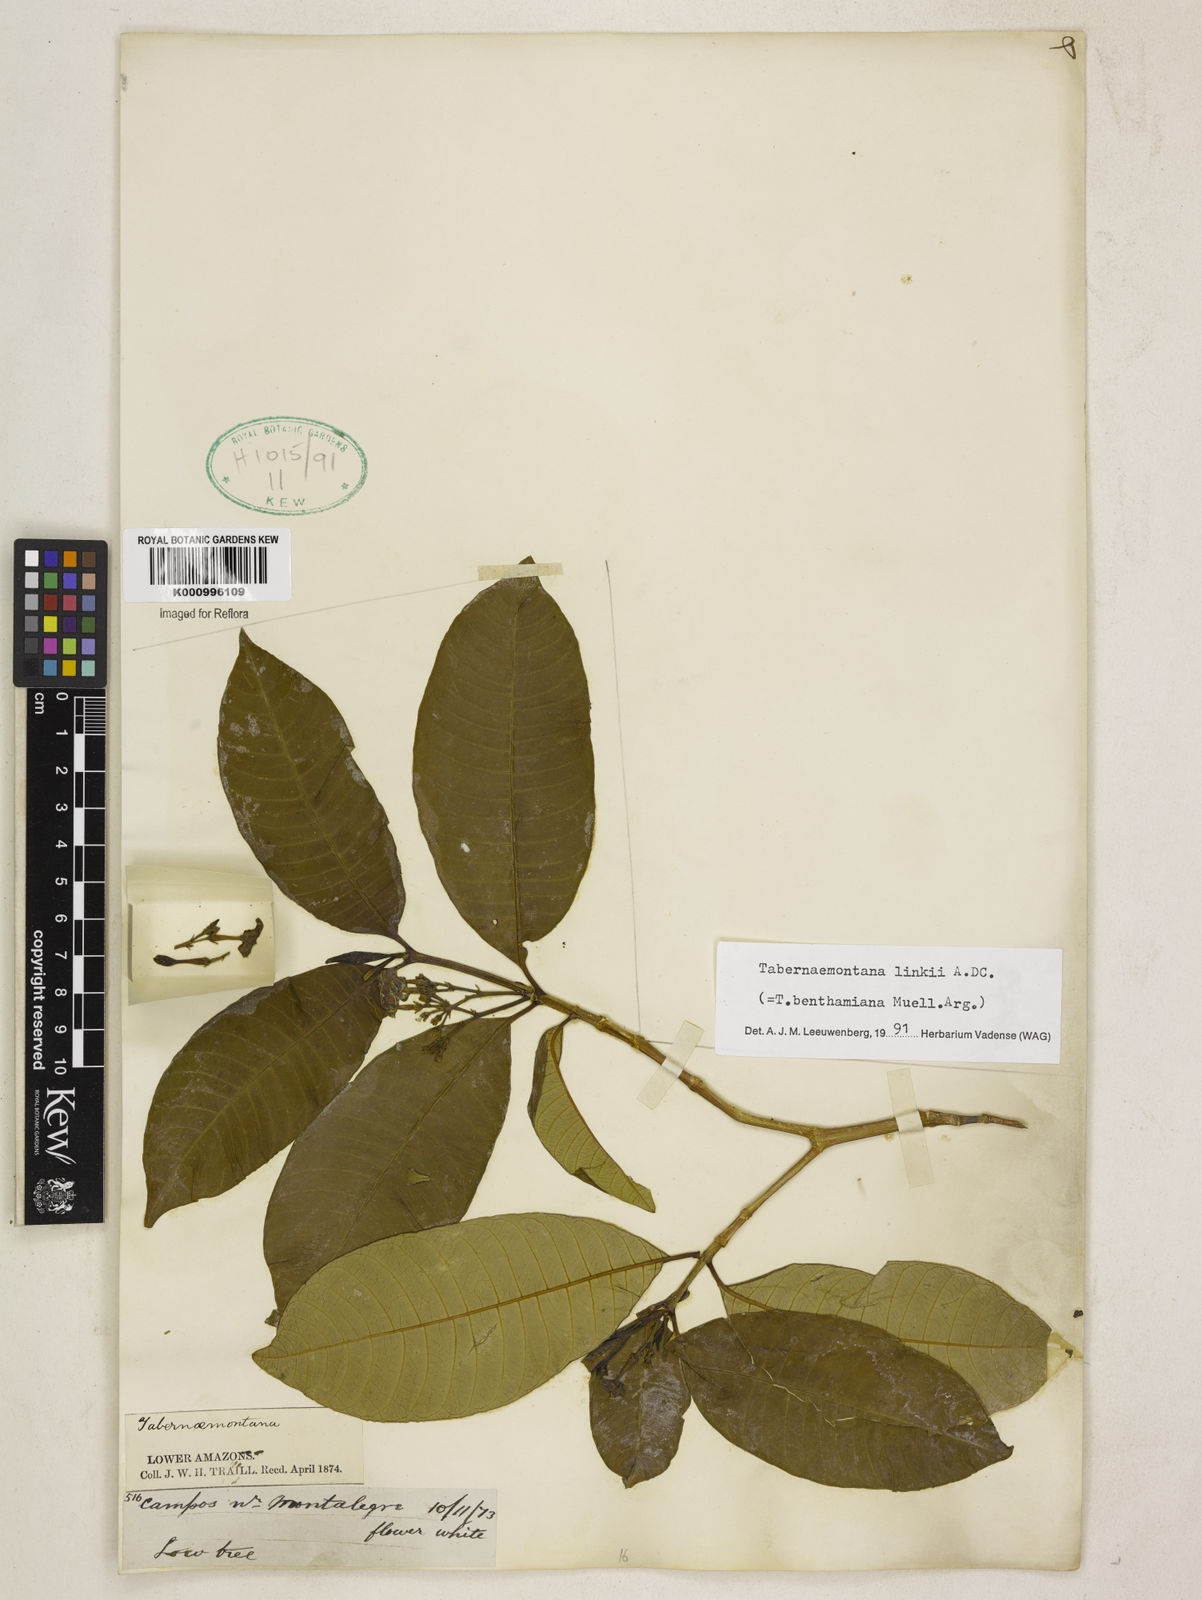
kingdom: Plantae
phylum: Tracheophyta
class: Magnoliopsida
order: Gentianales
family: Apocynaceae
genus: Tabernaemontana
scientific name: Tabernaemontana linkii
